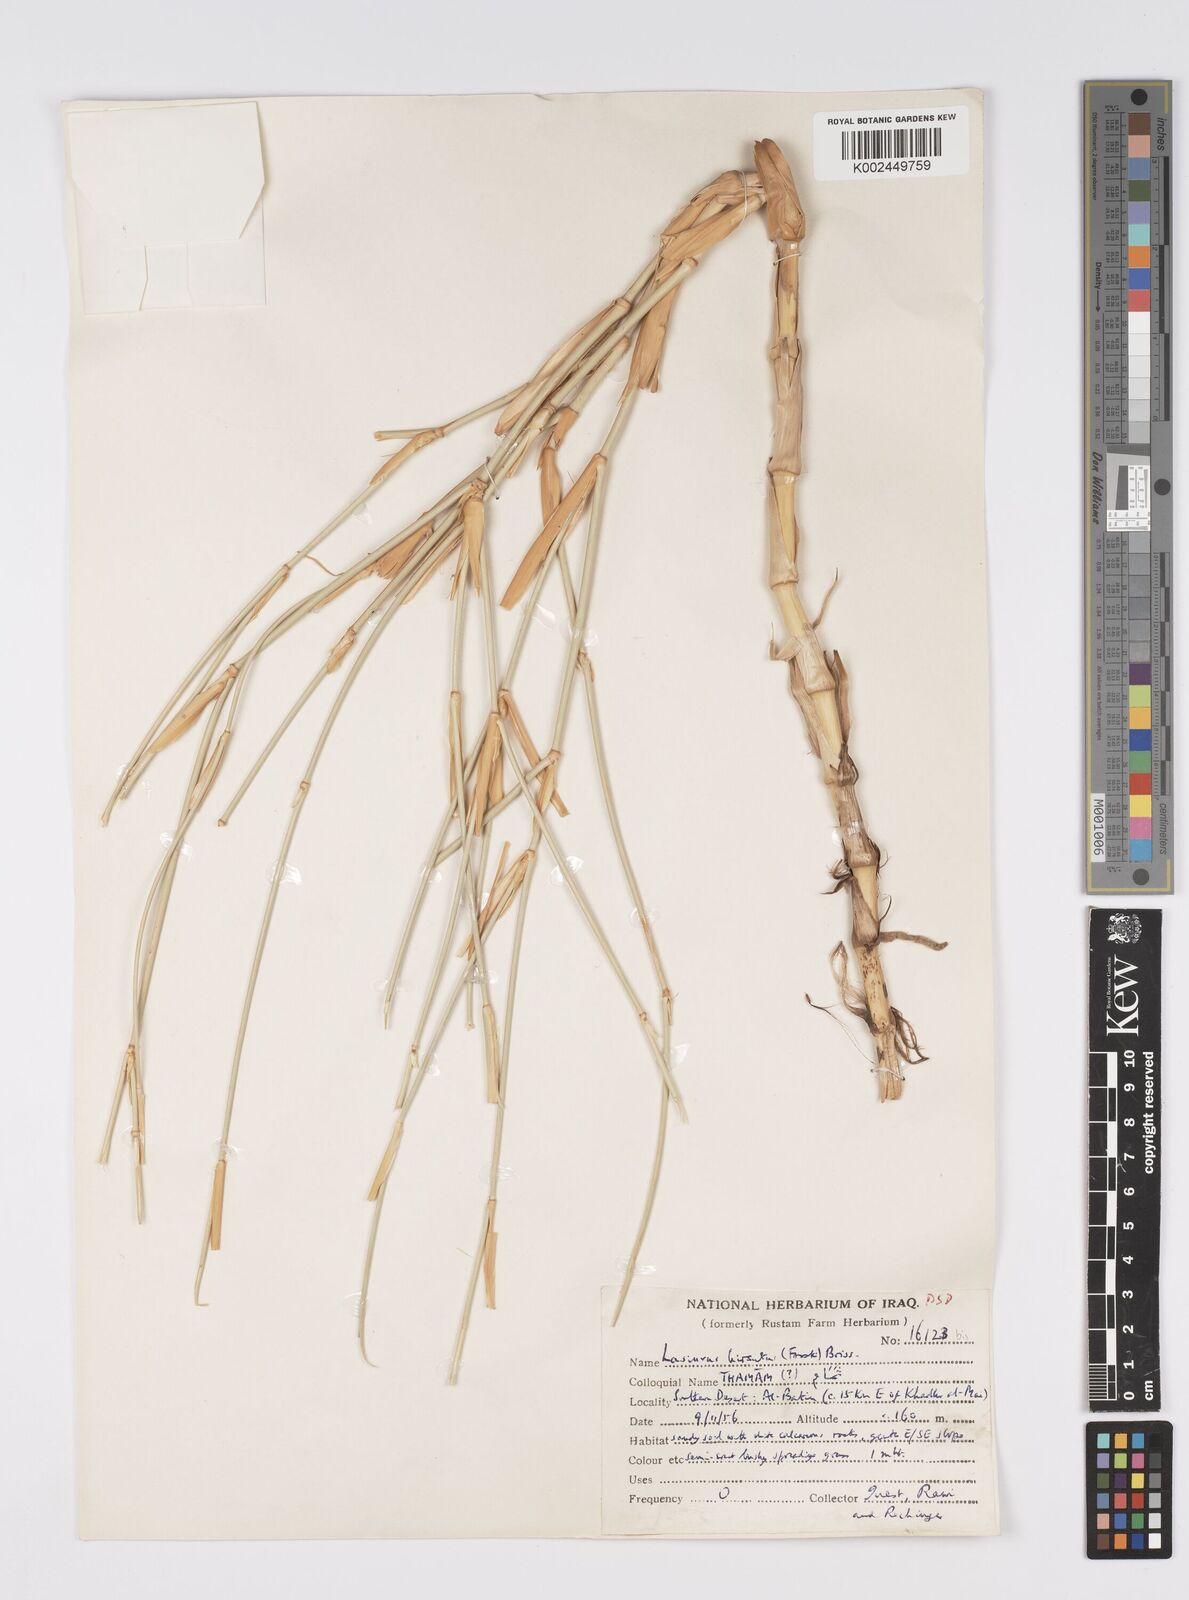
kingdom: Plantae
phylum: Tracheophyta
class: Liliopsida
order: Poales
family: Poaceae
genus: Lasiurus
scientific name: Lasiurus scindicus
